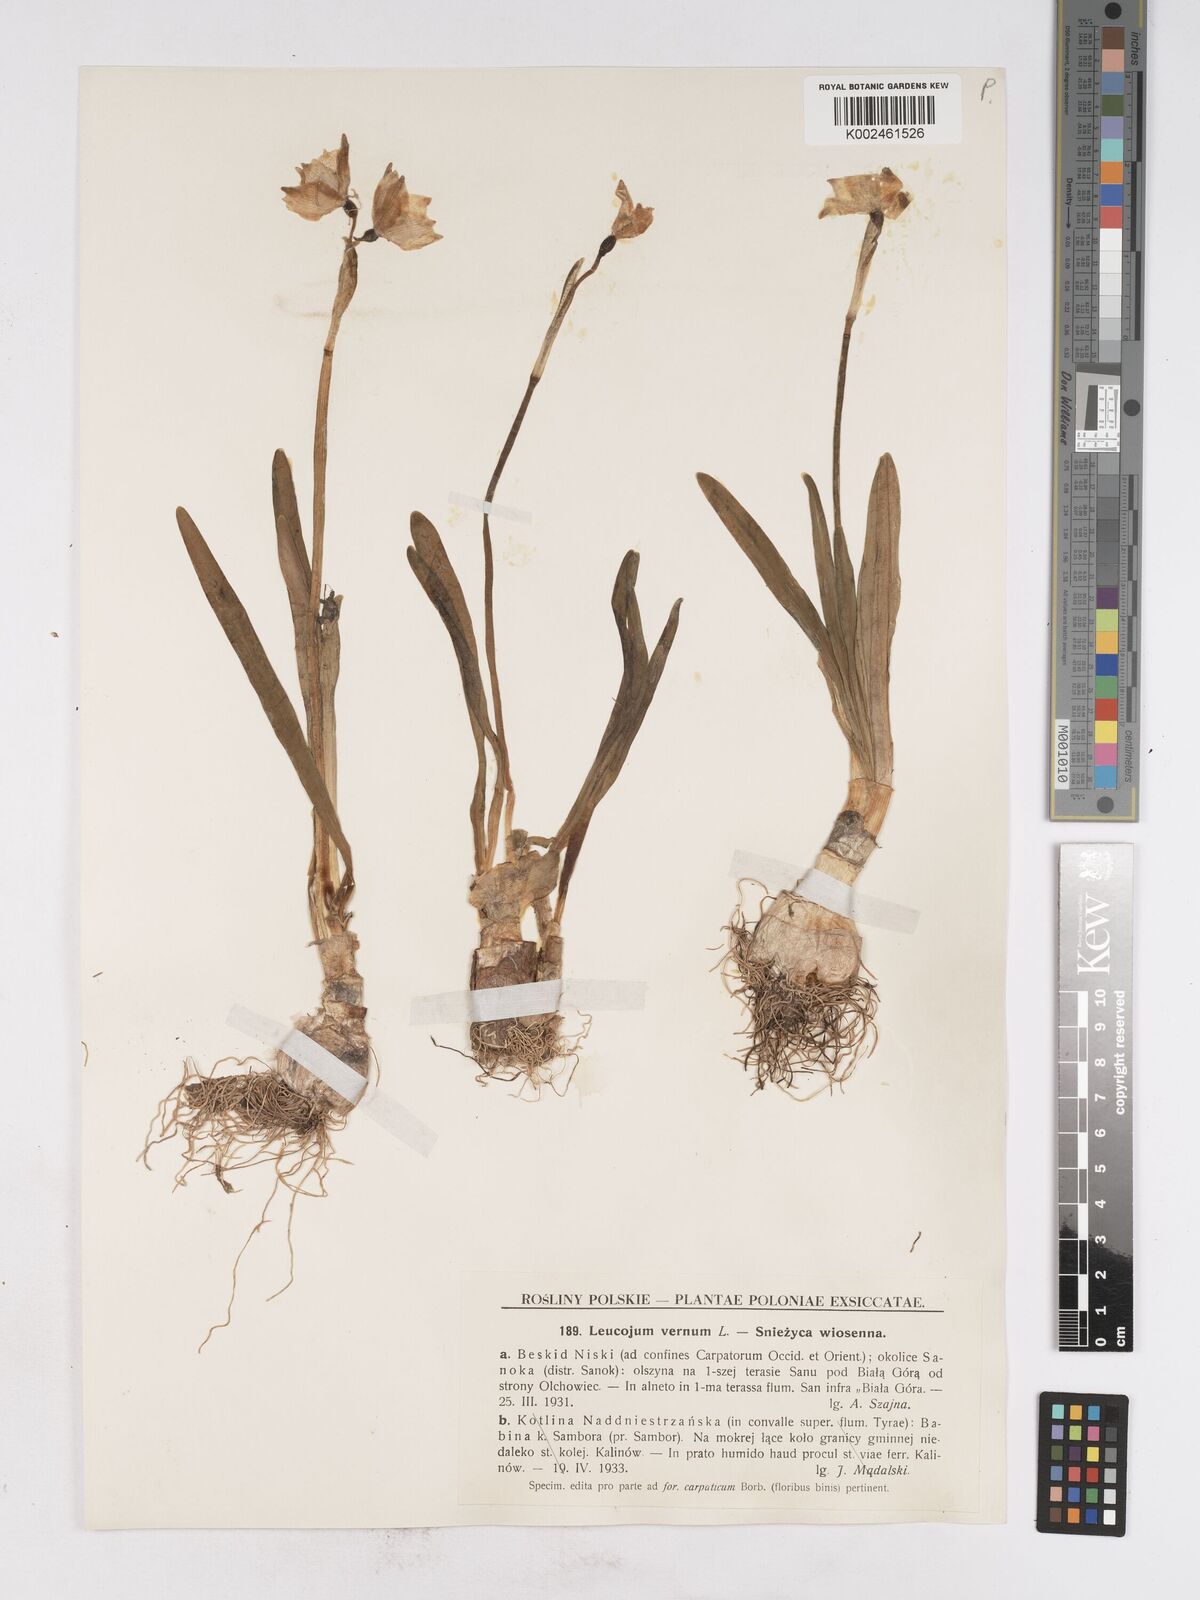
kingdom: Plantae
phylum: Tracheophyta
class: Liliopsida
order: Asparagales
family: Amaryllidaceae
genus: Leucojum
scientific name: Leucojum vernum
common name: Spring snowflake
